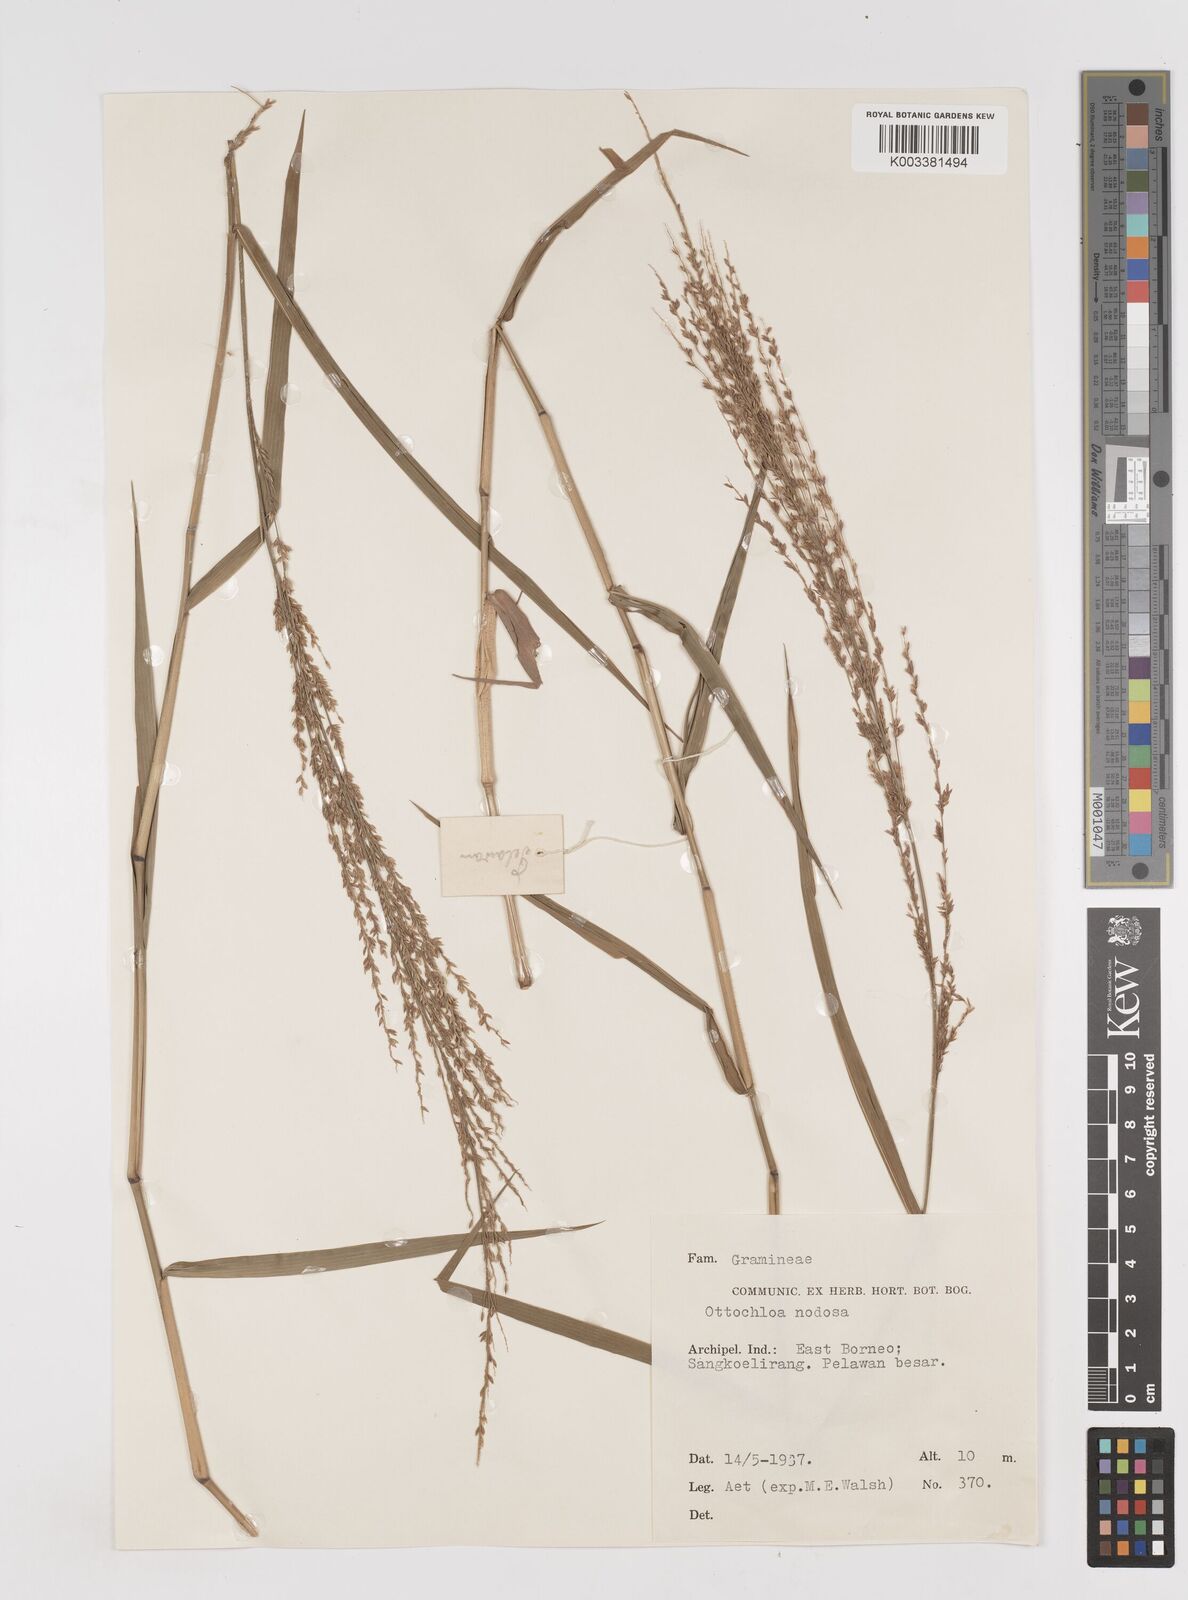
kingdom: Plantae
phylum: Tracheophyta
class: Liliopsida
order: Poales
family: Poaceae
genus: Ottochloa
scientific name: Ottochloa nodosa
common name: Slender-panic grass
